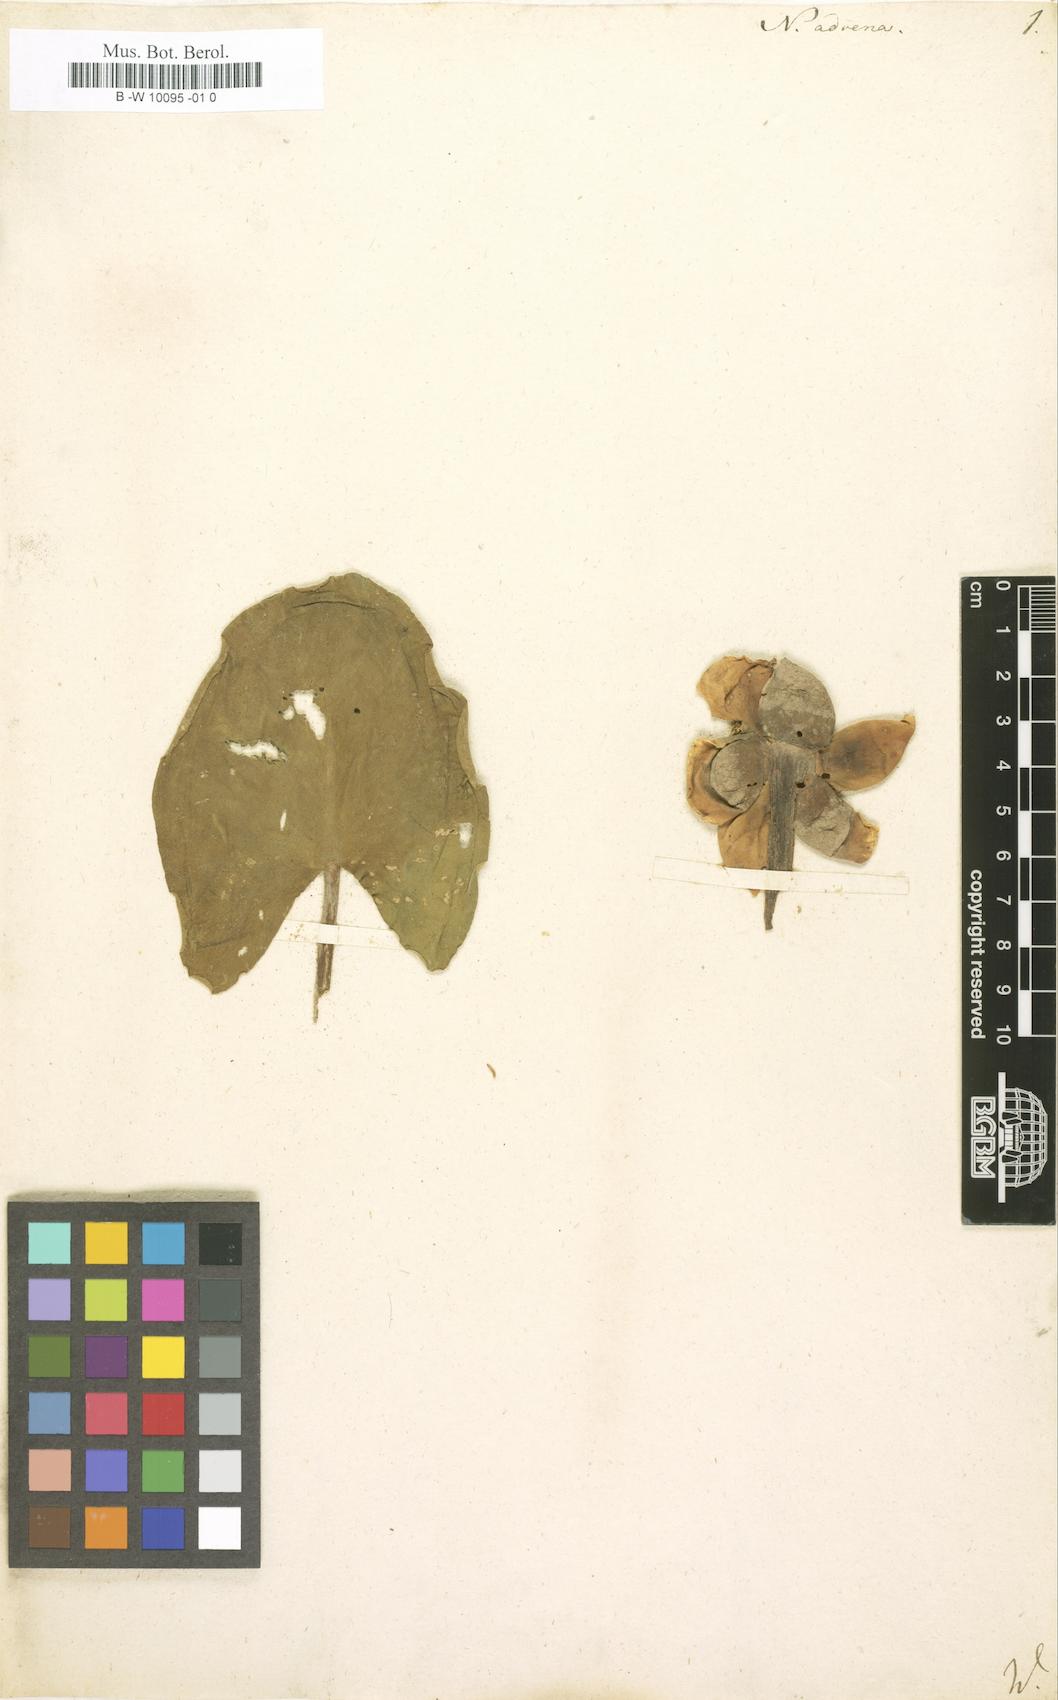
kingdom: Plantae
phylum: Tracheophyta
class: Magnoliopsida
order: Nymphaeales
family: Nymphaeaceae
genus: Nuphar
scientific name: Nuphar advena
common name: Spatter-dock
